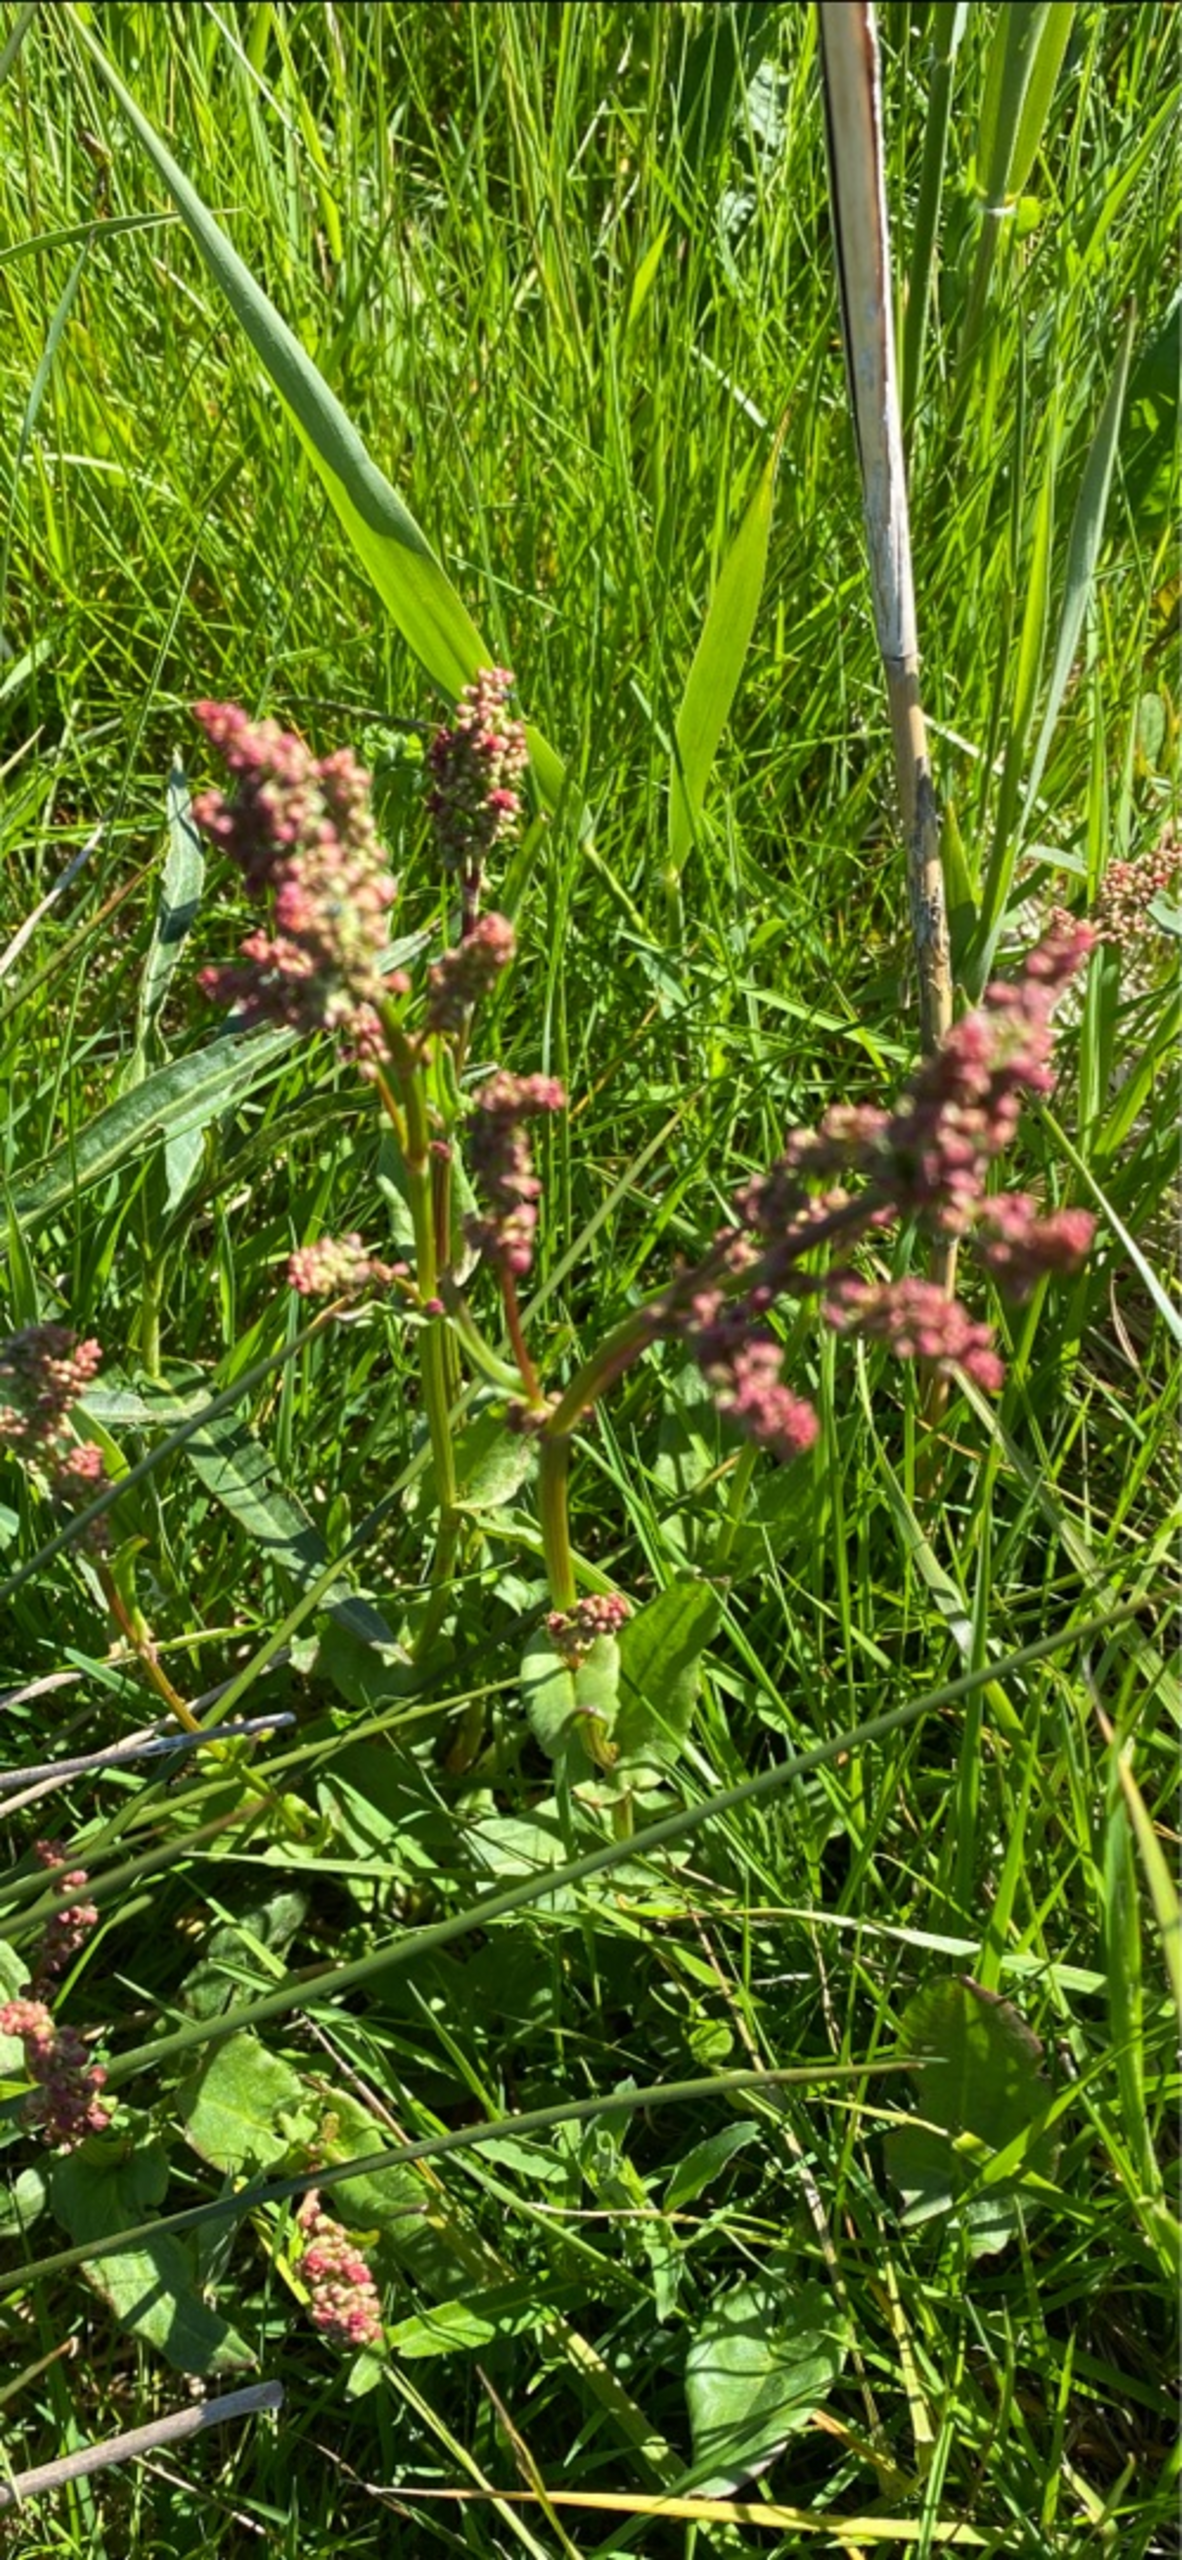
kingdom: Plantae
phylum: Tracheophyta
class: Magnoliopsida
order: Caryophyllales
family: Polygonaceae
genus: Rumex
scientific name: Rumex acetosa
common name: Almindelig syre
